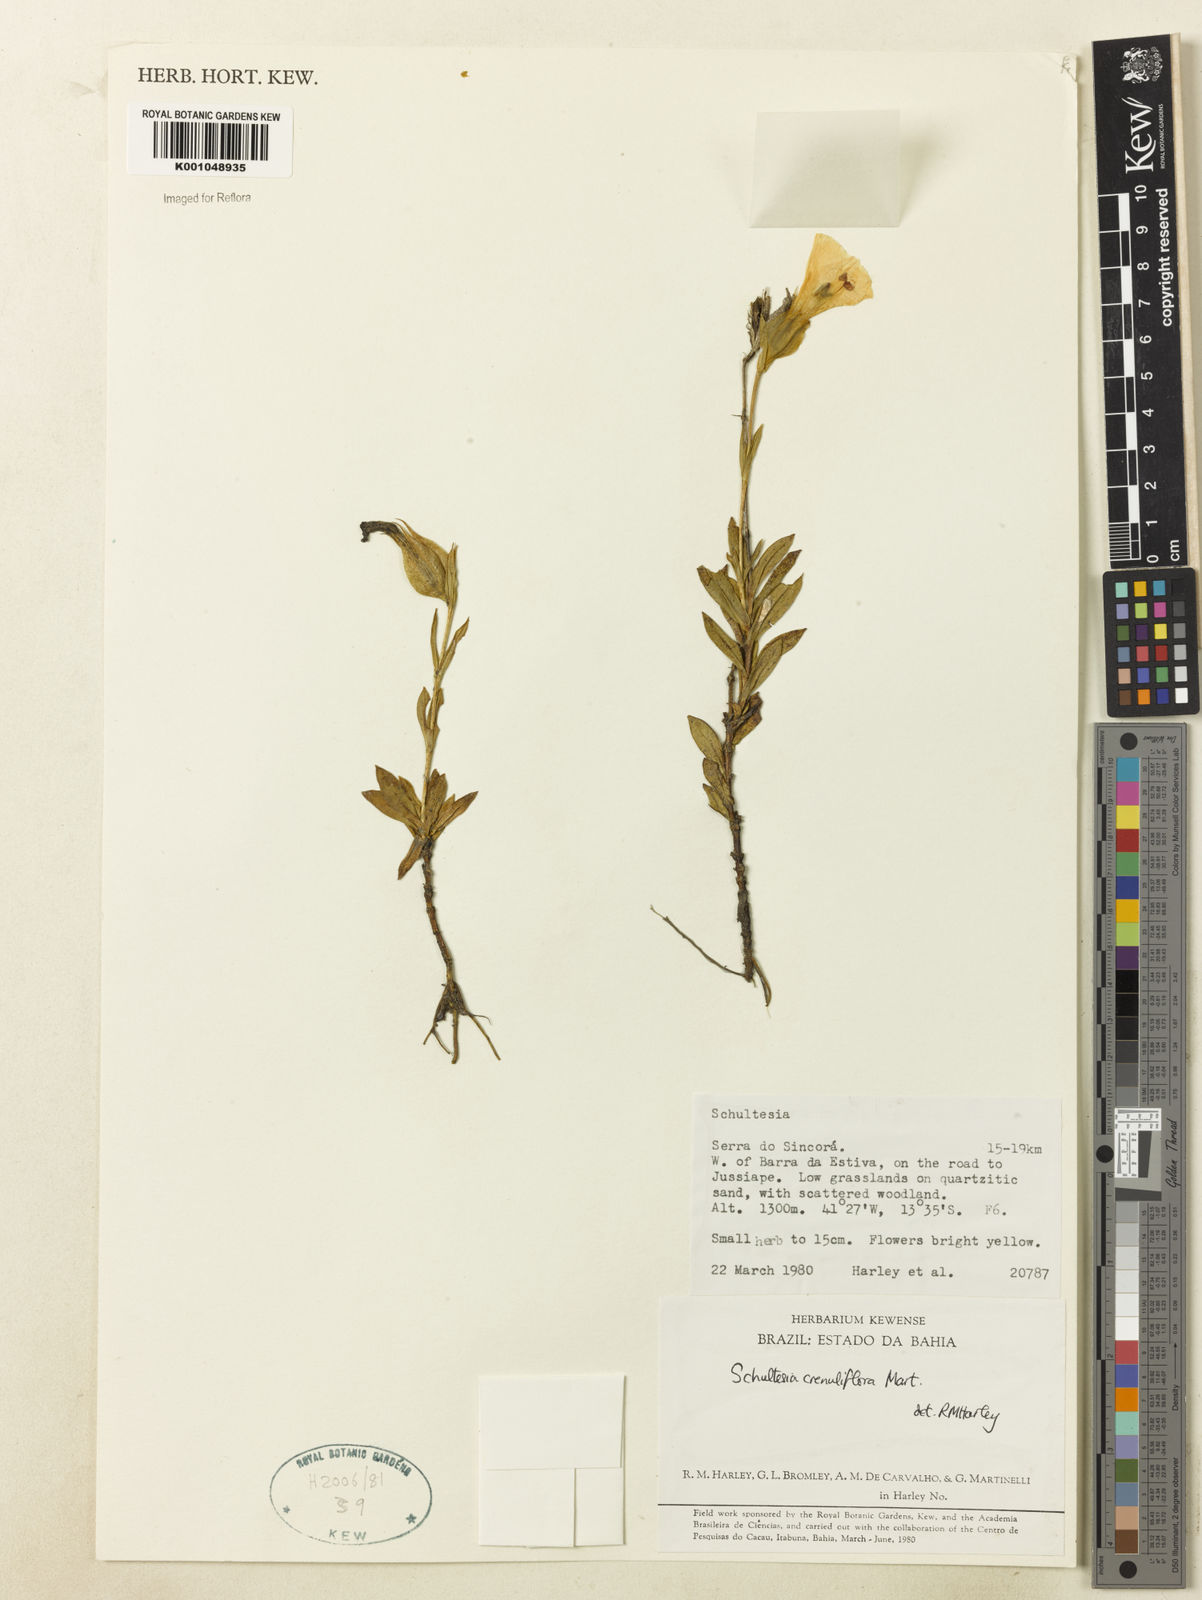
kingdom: Plantae
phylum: Tracheophyta
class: Magnoliopsida
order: Gentianales
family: Gentianaceae
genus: Schultesia
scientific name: Schultesia crenuliflora
